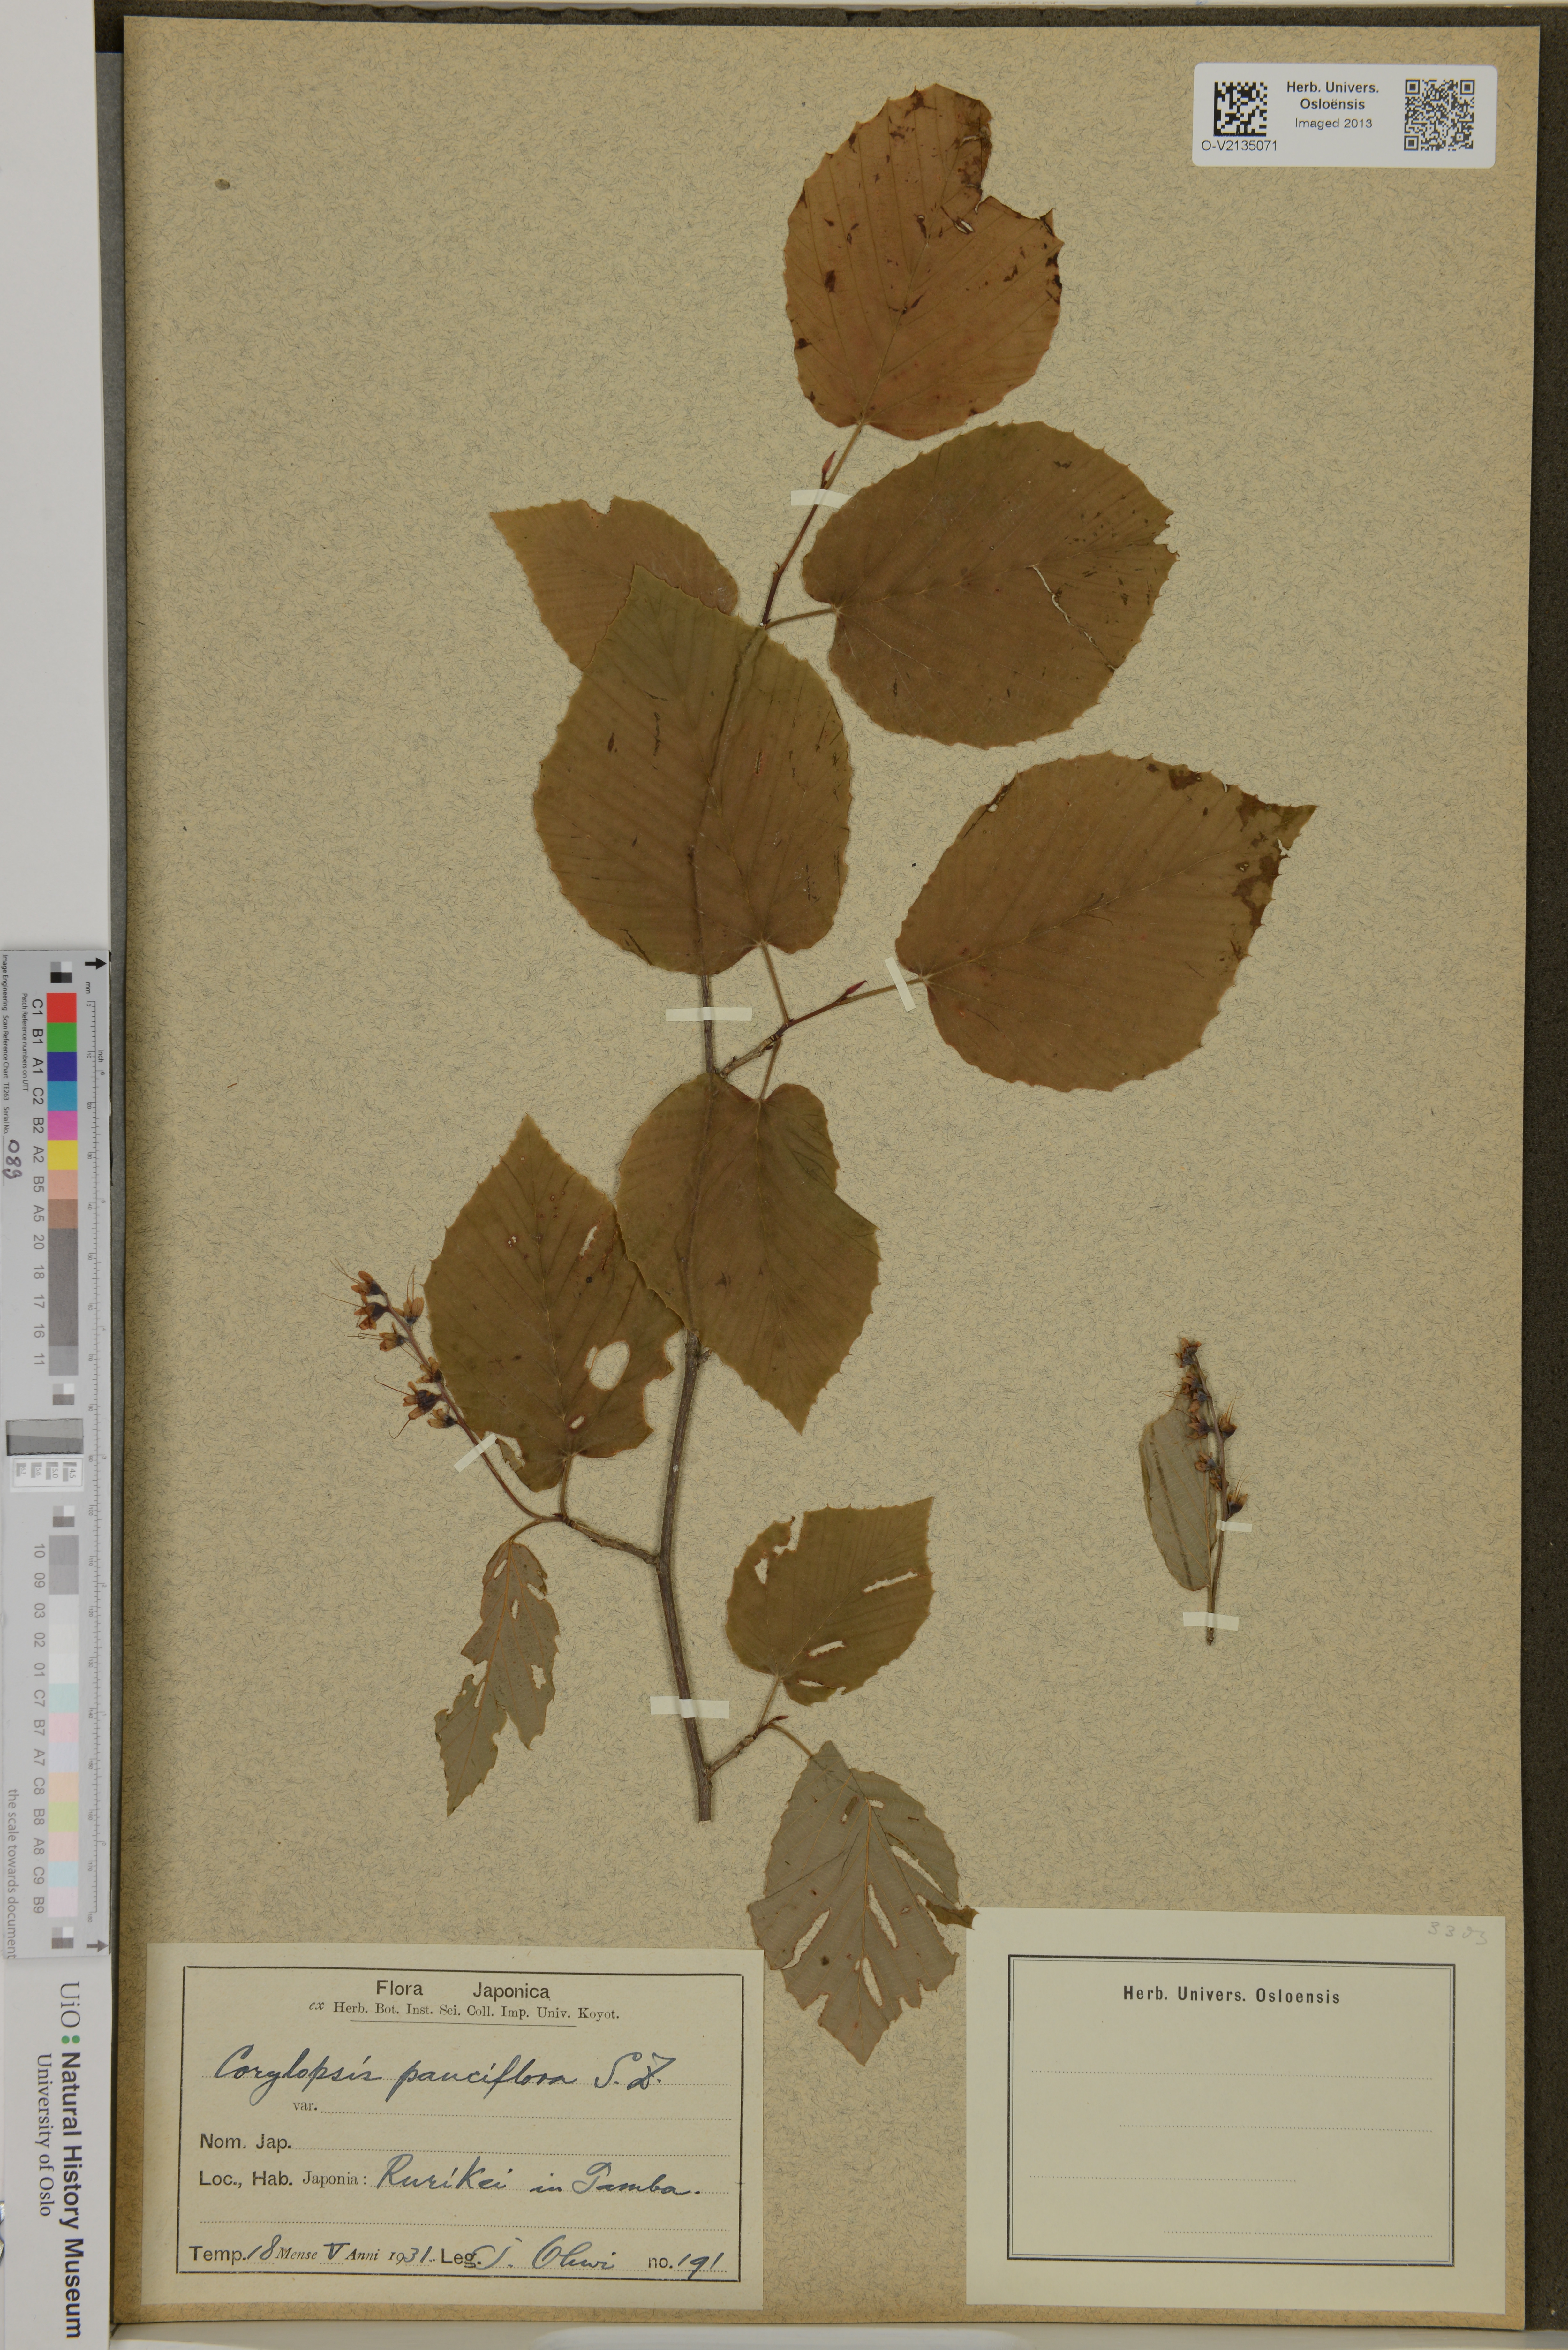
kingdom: Plantae
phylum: Tracheophyta
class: Magnoliopsida
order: Saxifragales
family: Hamamelidaceae
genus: Corylopsis
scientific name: Corylopsis pauciflora
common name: Buttercup winter-hazel
